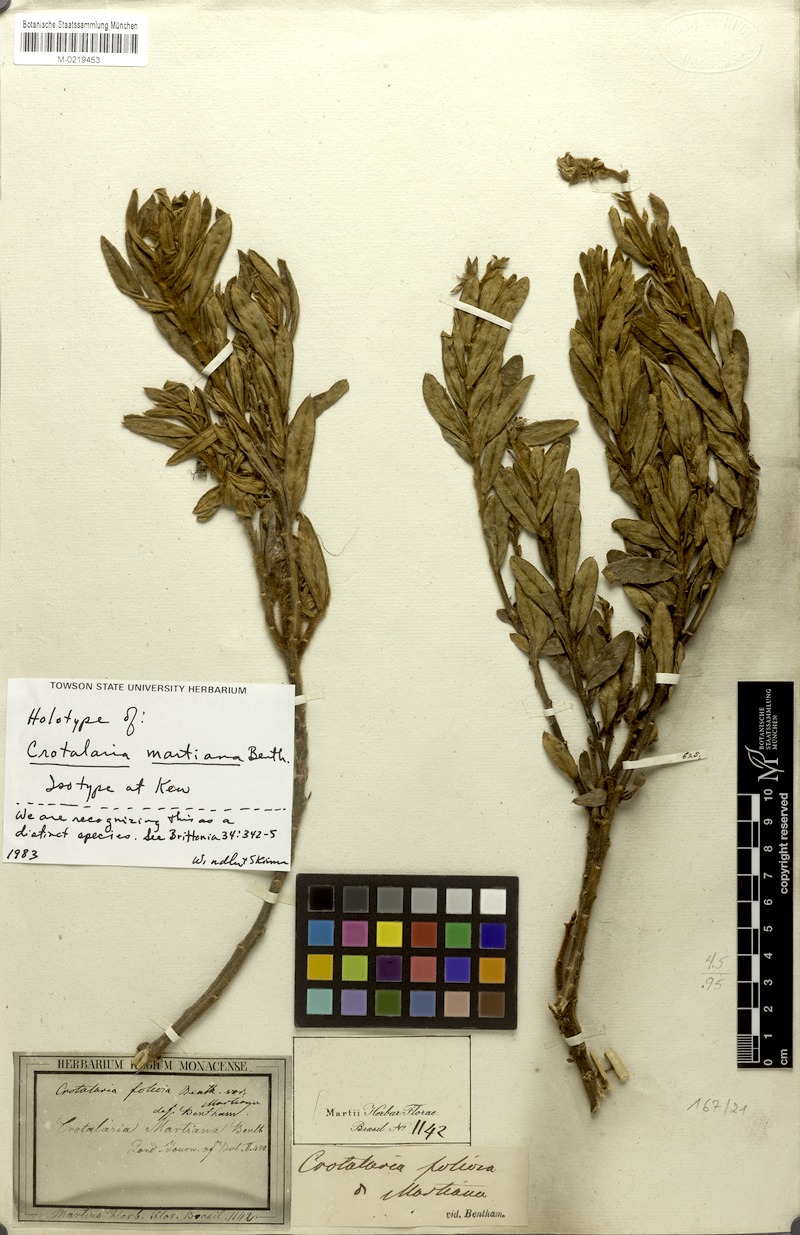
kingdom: Plantae
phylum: Tracheophyta
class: Magnoliopsida
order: Fabales
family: Fabaceae
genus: Crotalaria
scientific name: Crotalaria martiana
